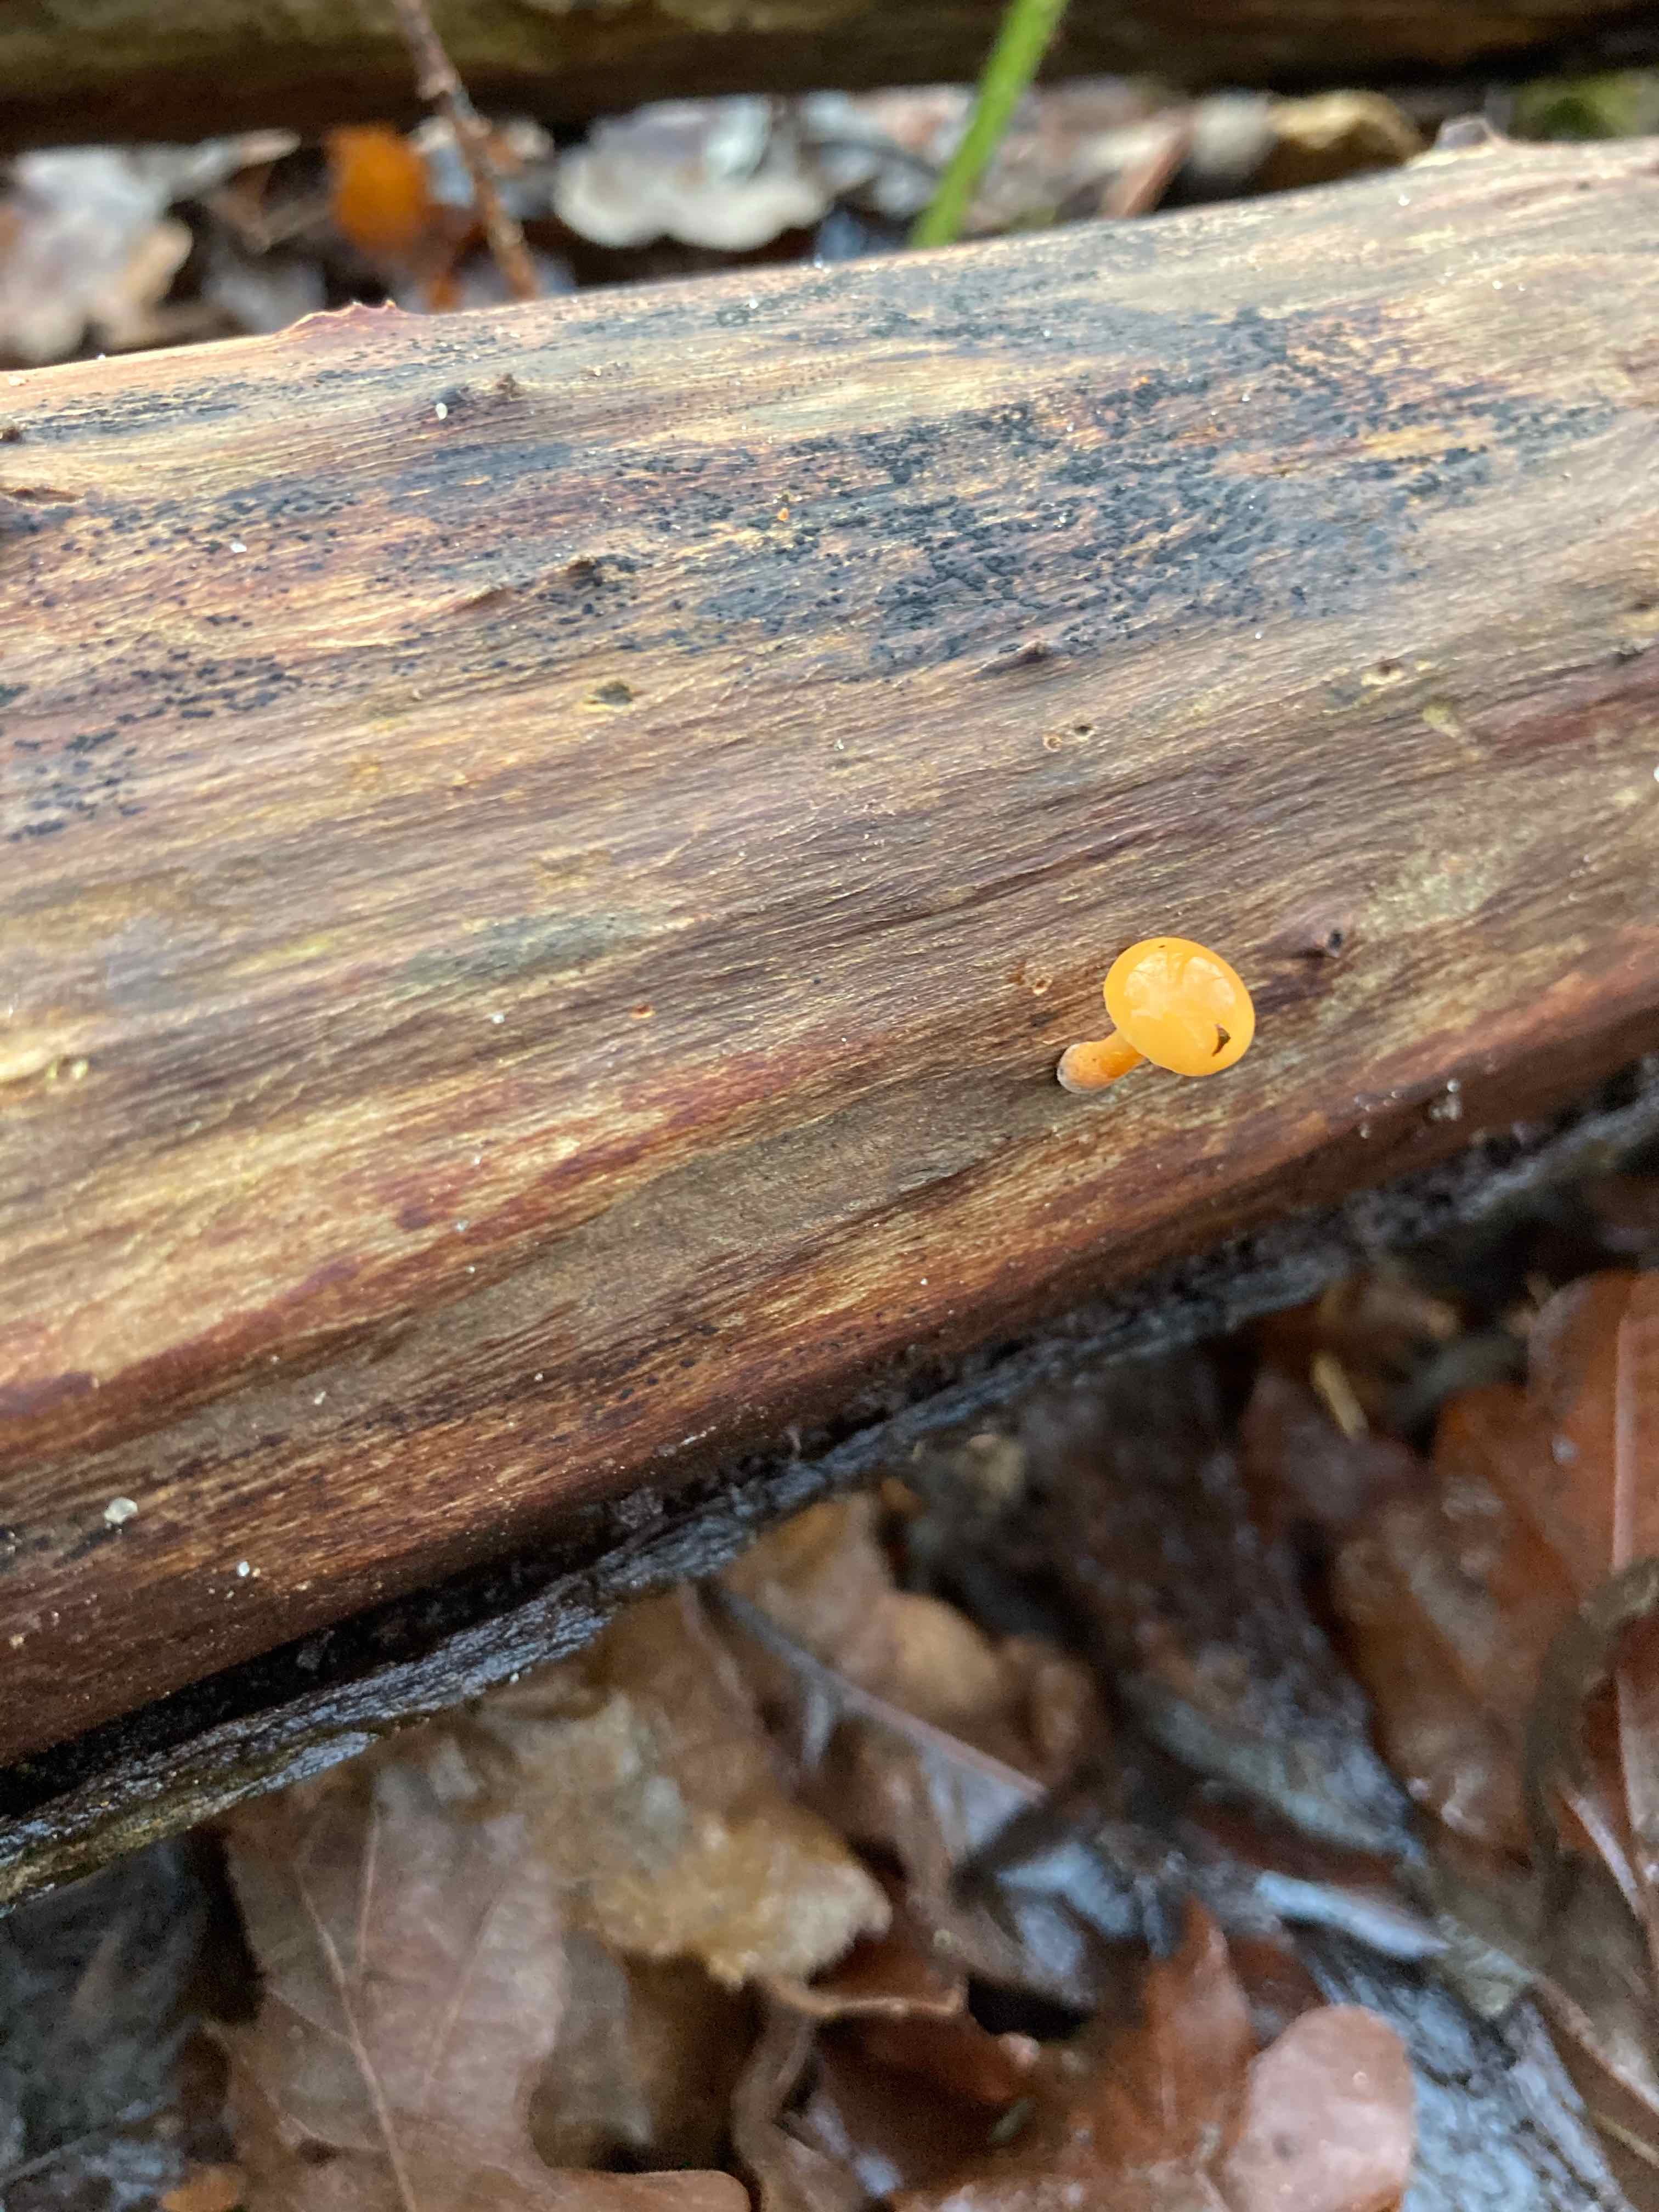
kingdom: Fungi
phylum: Basidiomycota
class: Agaricomycetes
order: Agaricales
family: Physalacriaceae
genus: Flammulina
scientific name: Flammulina
